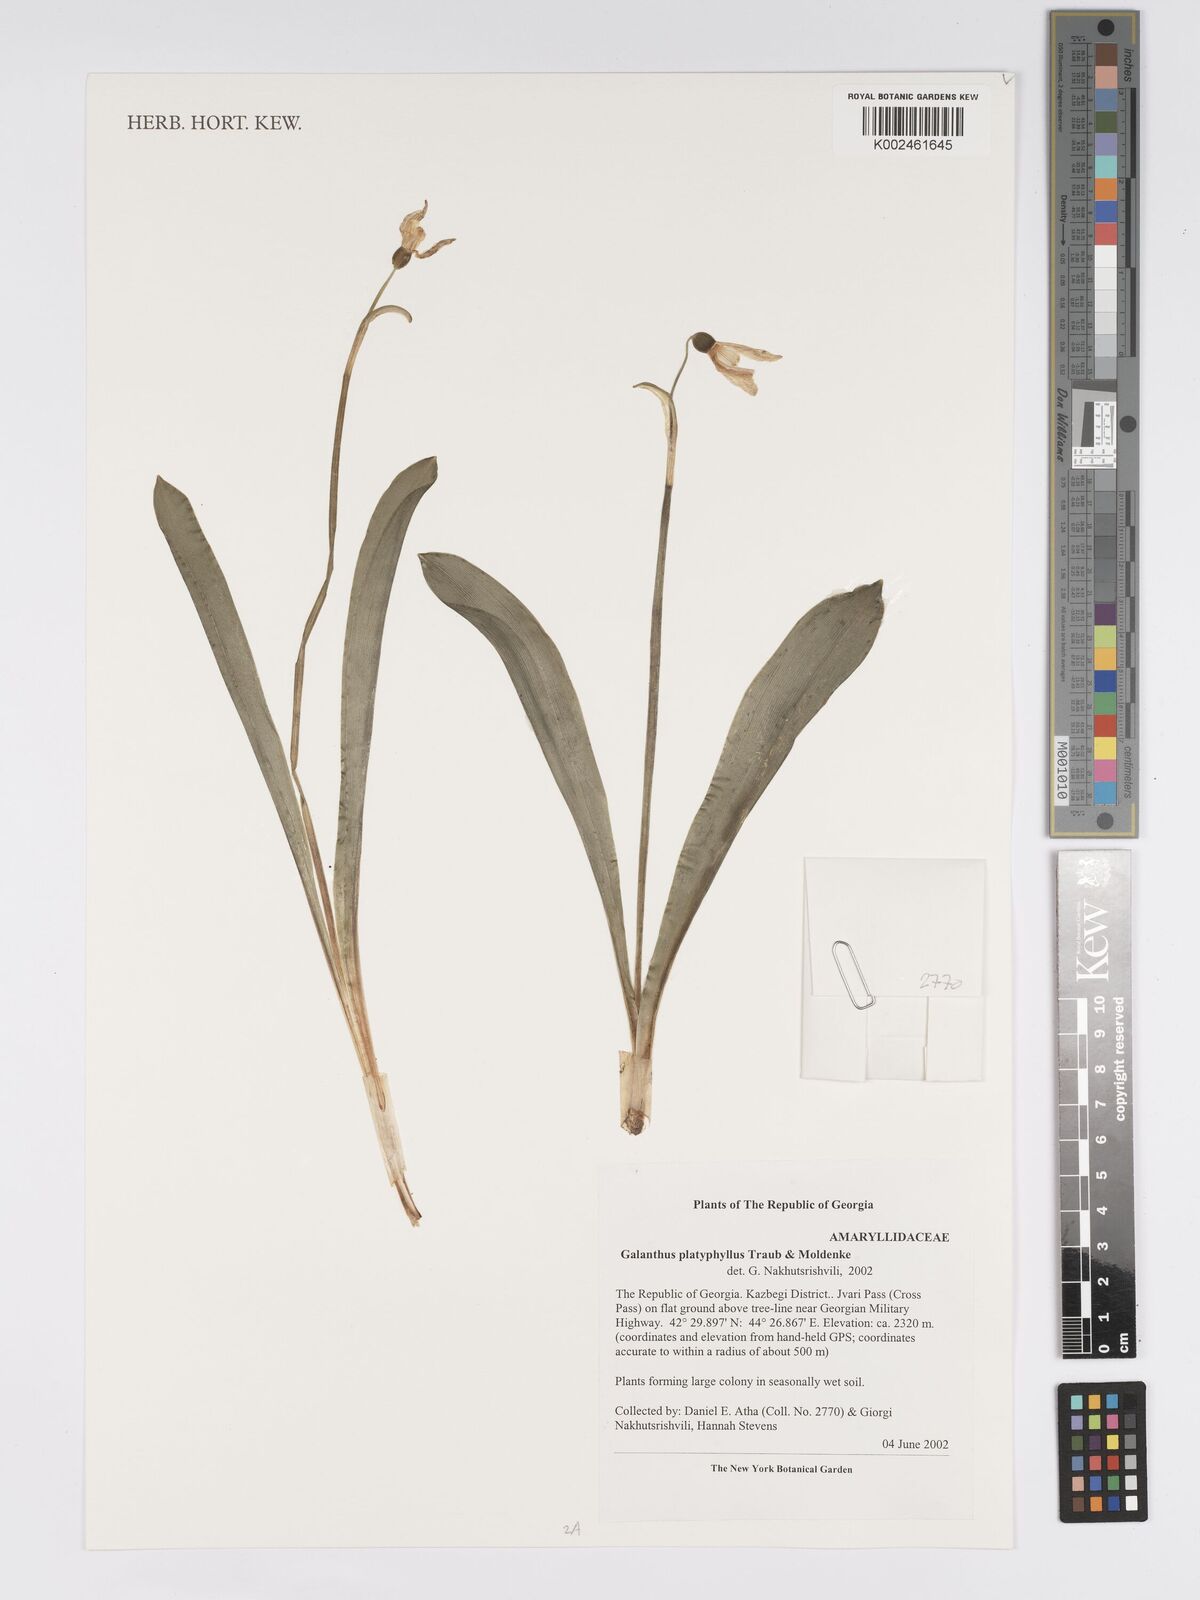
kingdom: Plantae
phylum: Tracheophyta
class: Liliopsida
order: Asparagales
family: Amaryllidaceae
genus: Galanthus
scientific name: Galanthus platyphyllus
